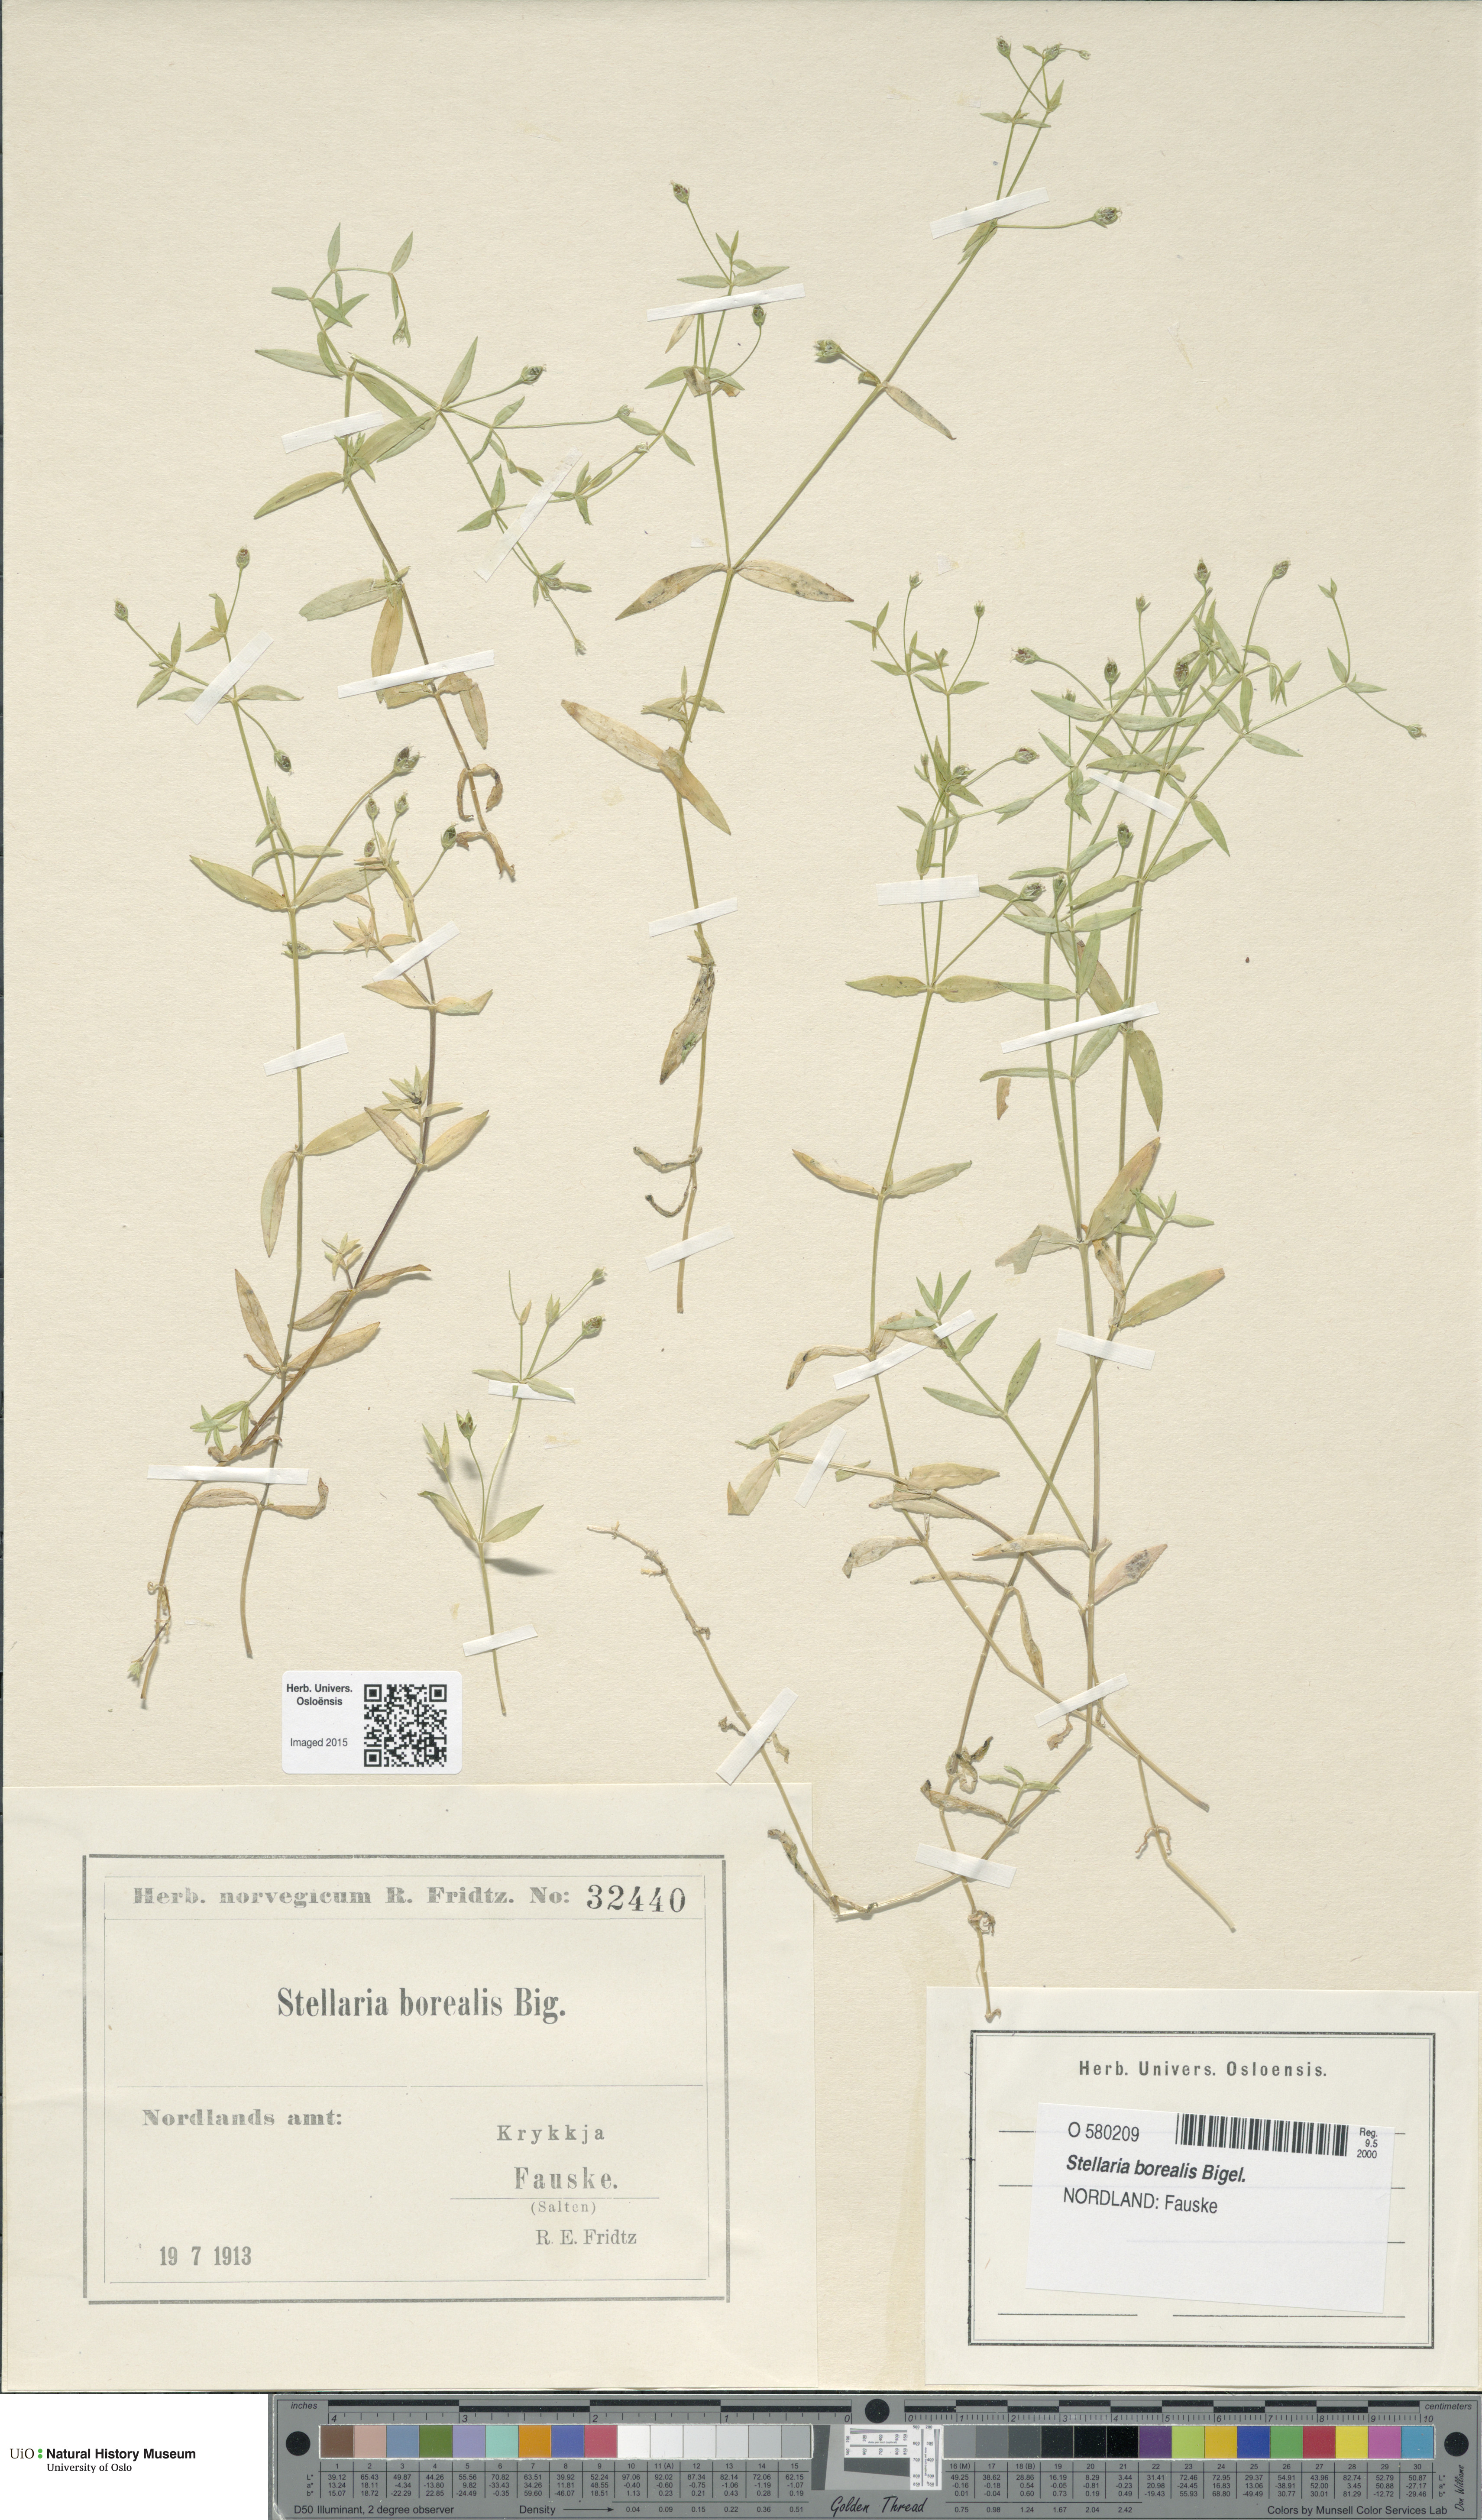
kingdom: Plantae
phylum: Tracheophyta
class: Magnoliopsida
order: Caryophyllales
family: Caryophyllaceae
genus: Stellaria
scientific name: Stellaria borealis
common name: Boreal starwort
